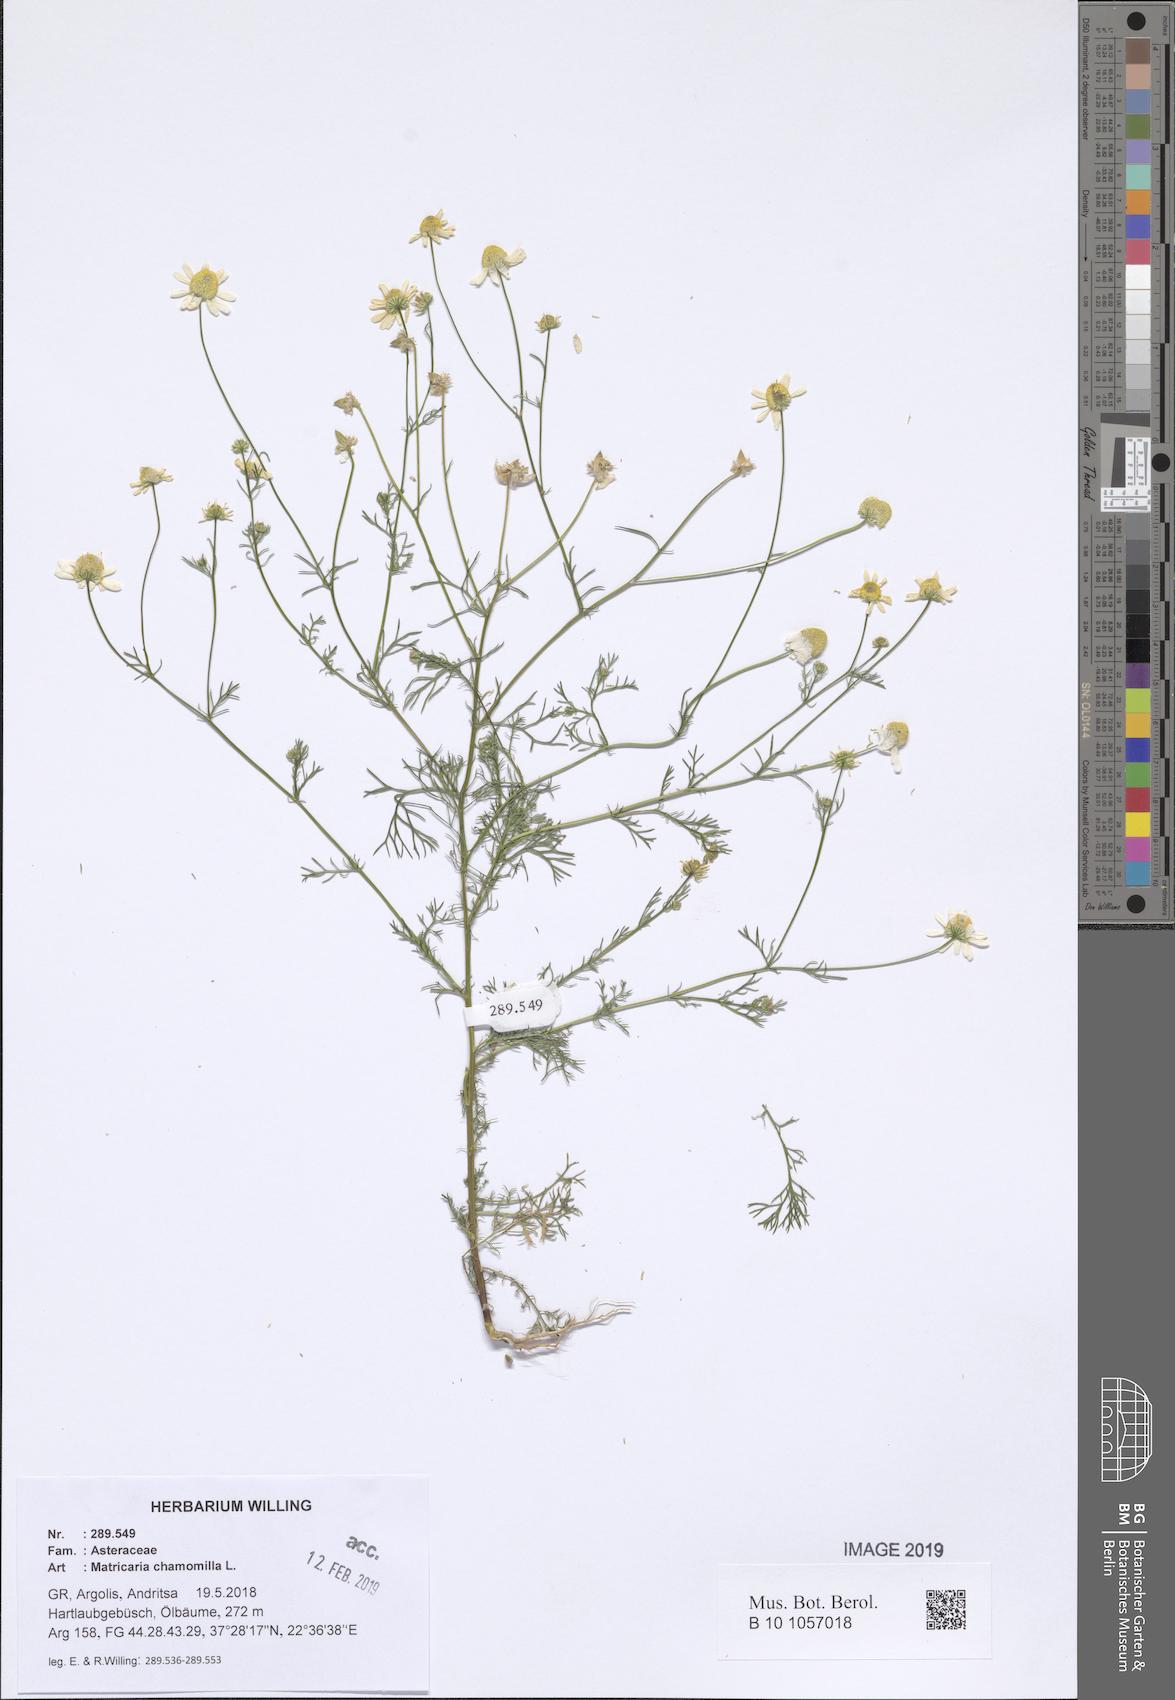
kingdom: Plantae
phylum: Tracheophyta
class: Magnoliopsida
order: Asterales
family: Asteraceae
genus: Matricaria
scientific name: Matricaria chamomilla
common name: Scented mayweed
